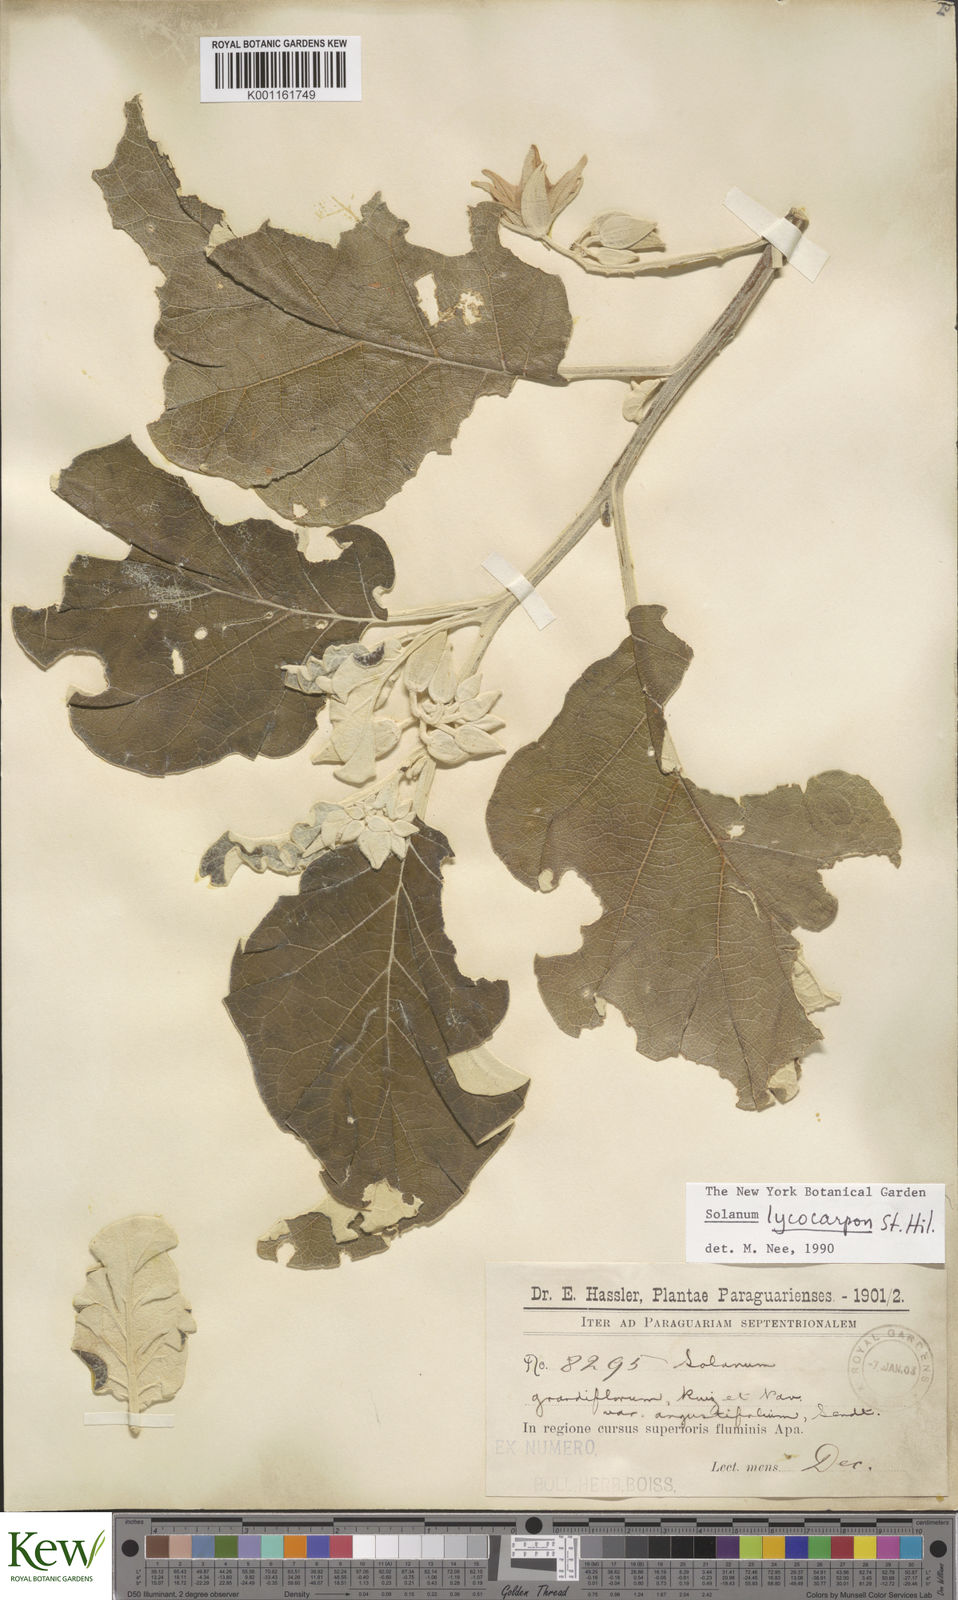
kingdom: Plantae
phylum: Tracheophyta
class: Magnoliopsida
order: Solanales
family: Solanaceae
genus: Solanum
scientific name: Solanum lycocarpum
